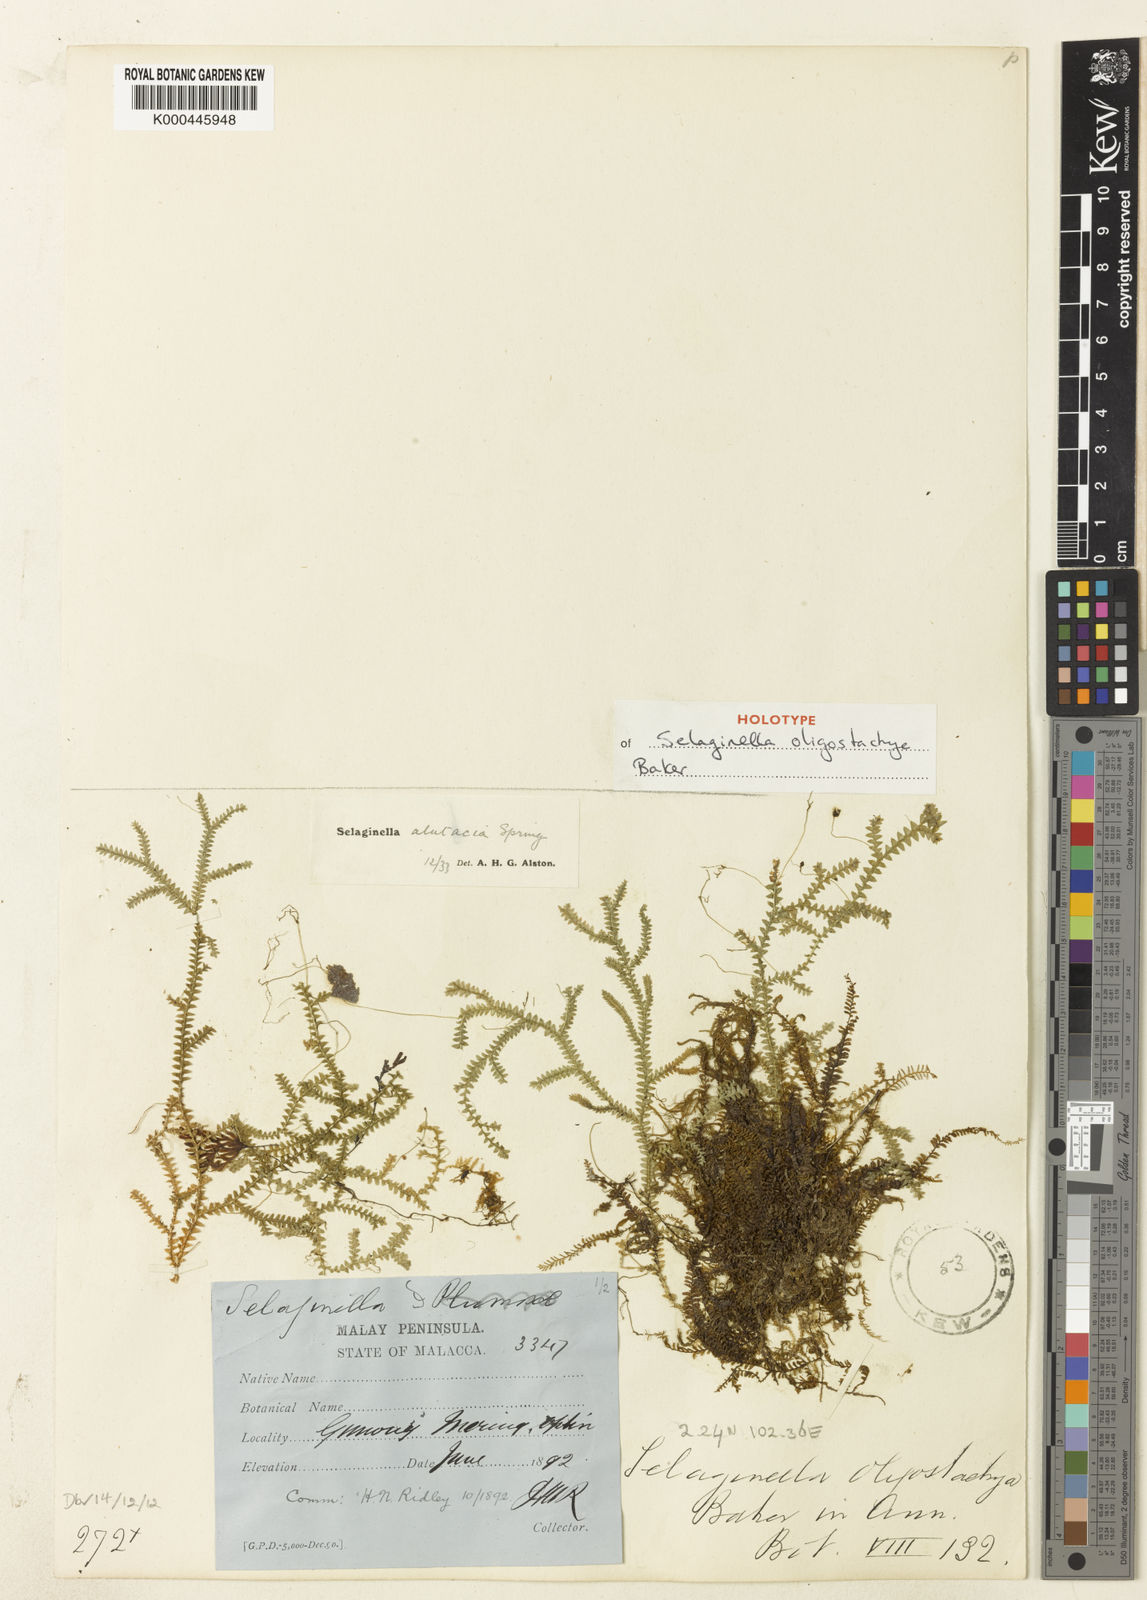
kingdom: Plantae
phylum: Tracheophyta
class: Lycopodiopsida
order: Selaginellales
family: Selaginellaceae
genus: Selaginella
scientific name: Selaginella
